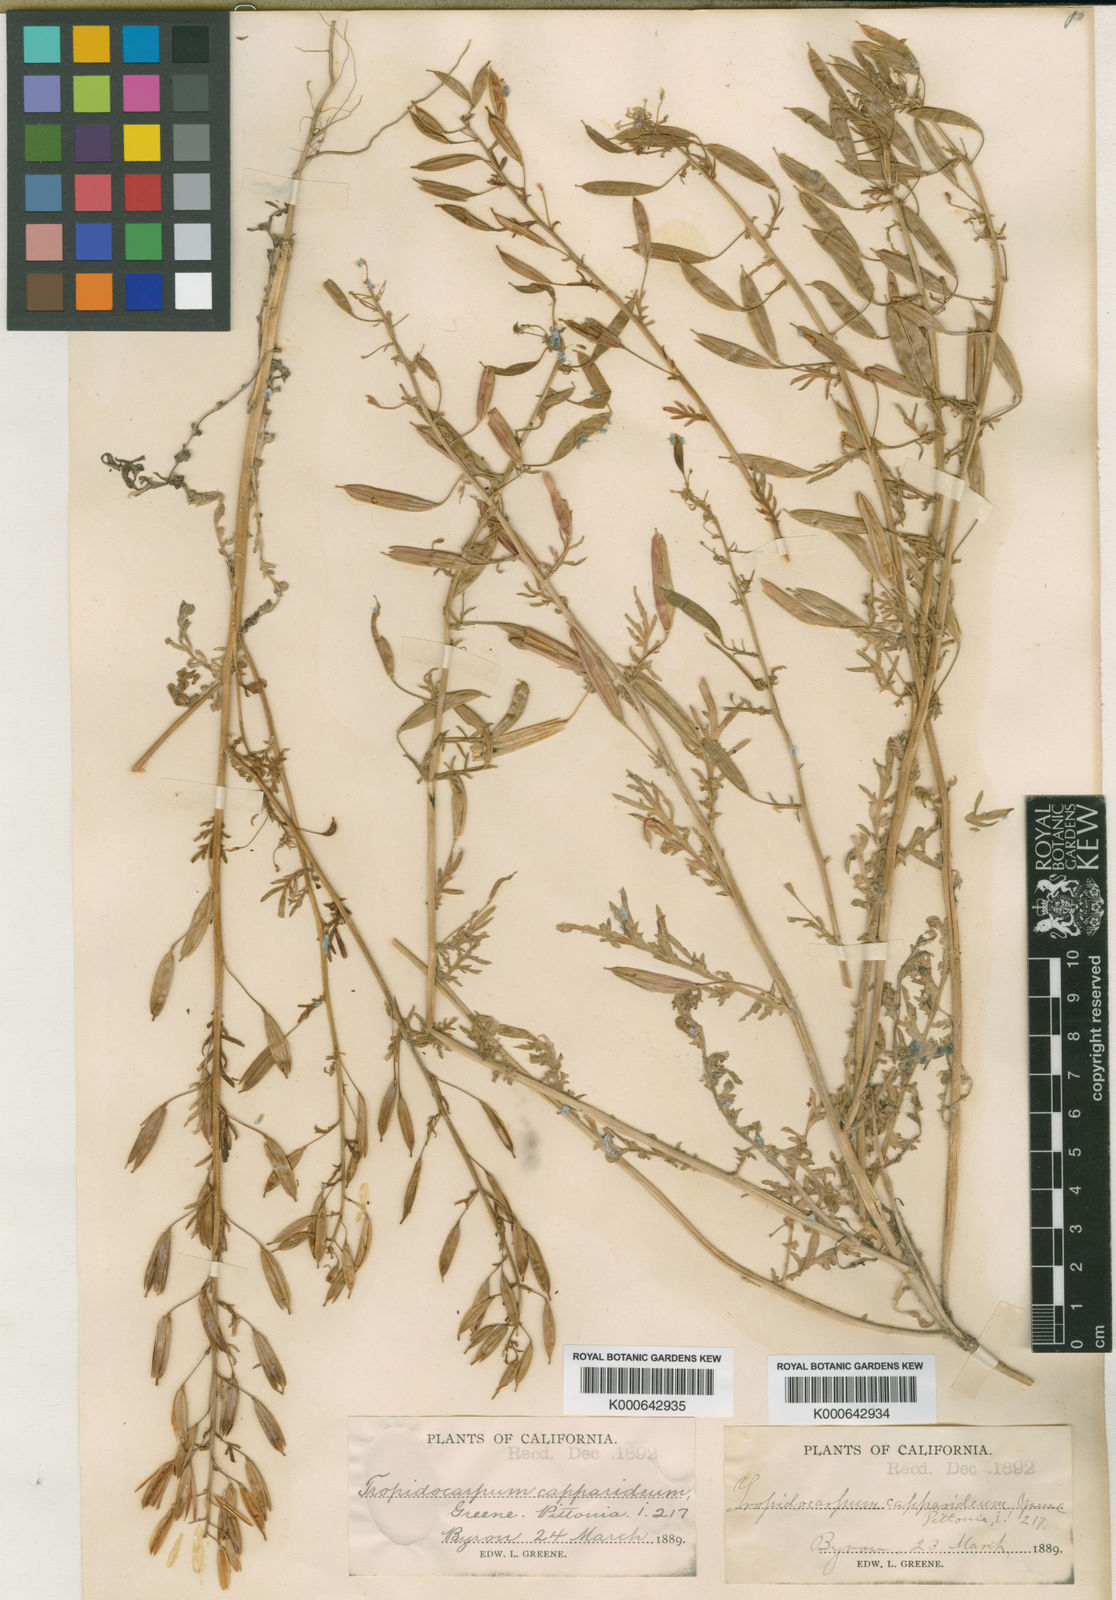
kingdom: Plantae
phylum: Tracheophyta
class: Magnoliopsida
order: Brassicales
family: Brassicaceae
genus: Tropidocarpum
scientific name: Tropidocarpum capparideum
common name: Caper-fruit tropidocarpum
